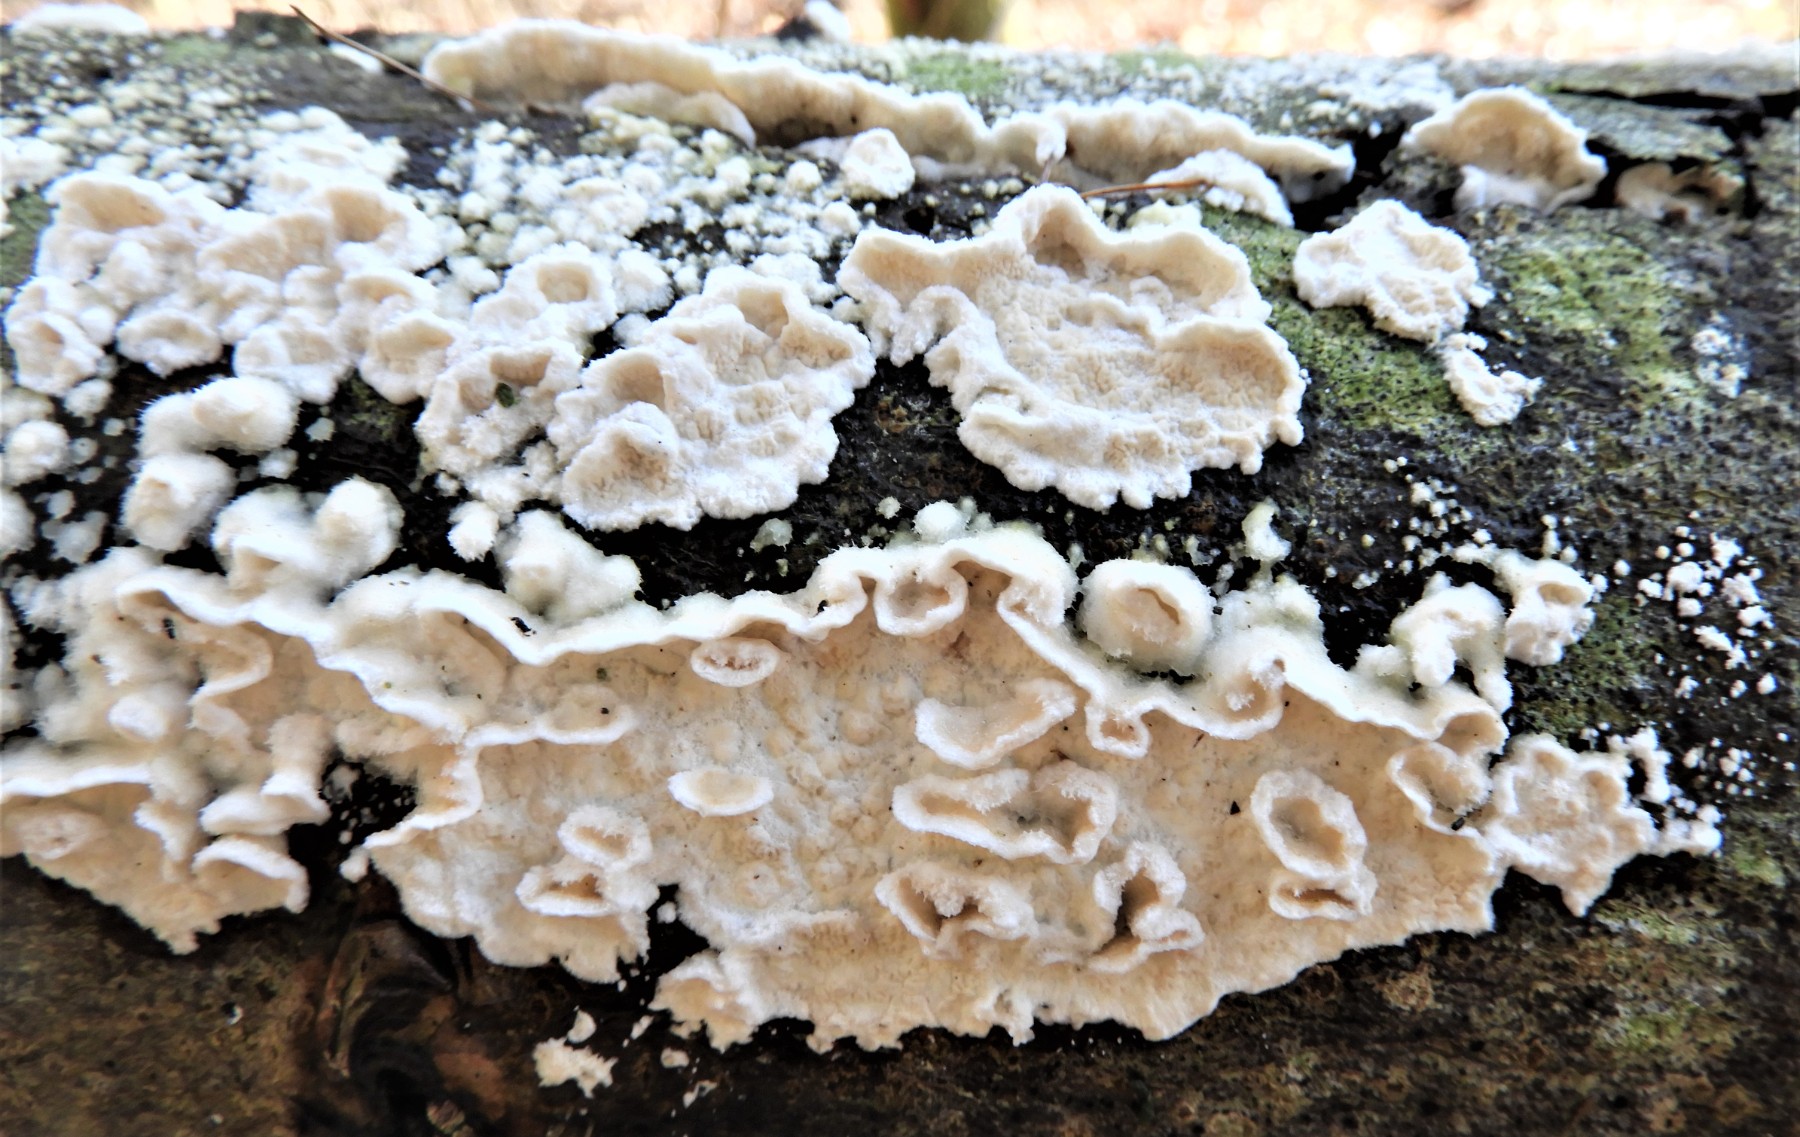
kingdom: Fungi
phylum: Basidiomycota
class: Agaricomycetes
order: Polyporales
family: Irpicaceae
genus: Byssomerulius
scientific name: Byssomerulius corium
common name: læder-åresvamp
